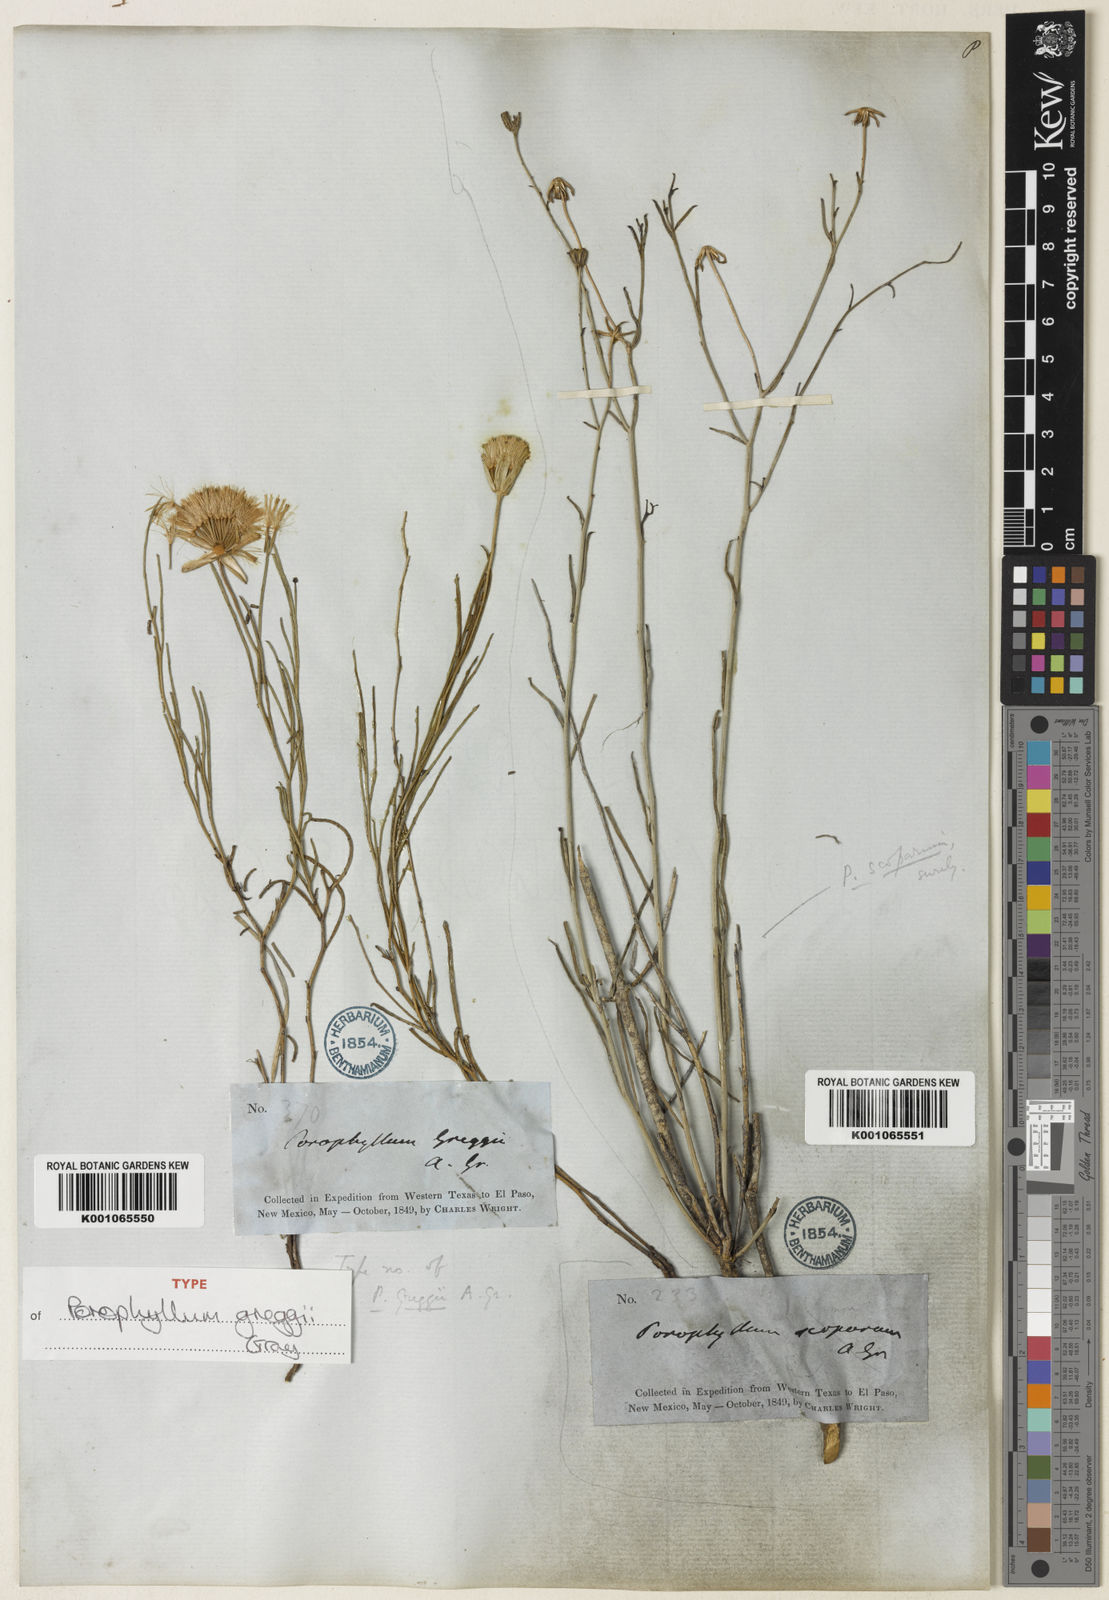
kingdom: Plantae
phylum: Tracheophyta
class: Magnoliopsida
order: Asterales
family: Asteraceae
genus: Porophyllum
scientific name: Porophyllum greggii
